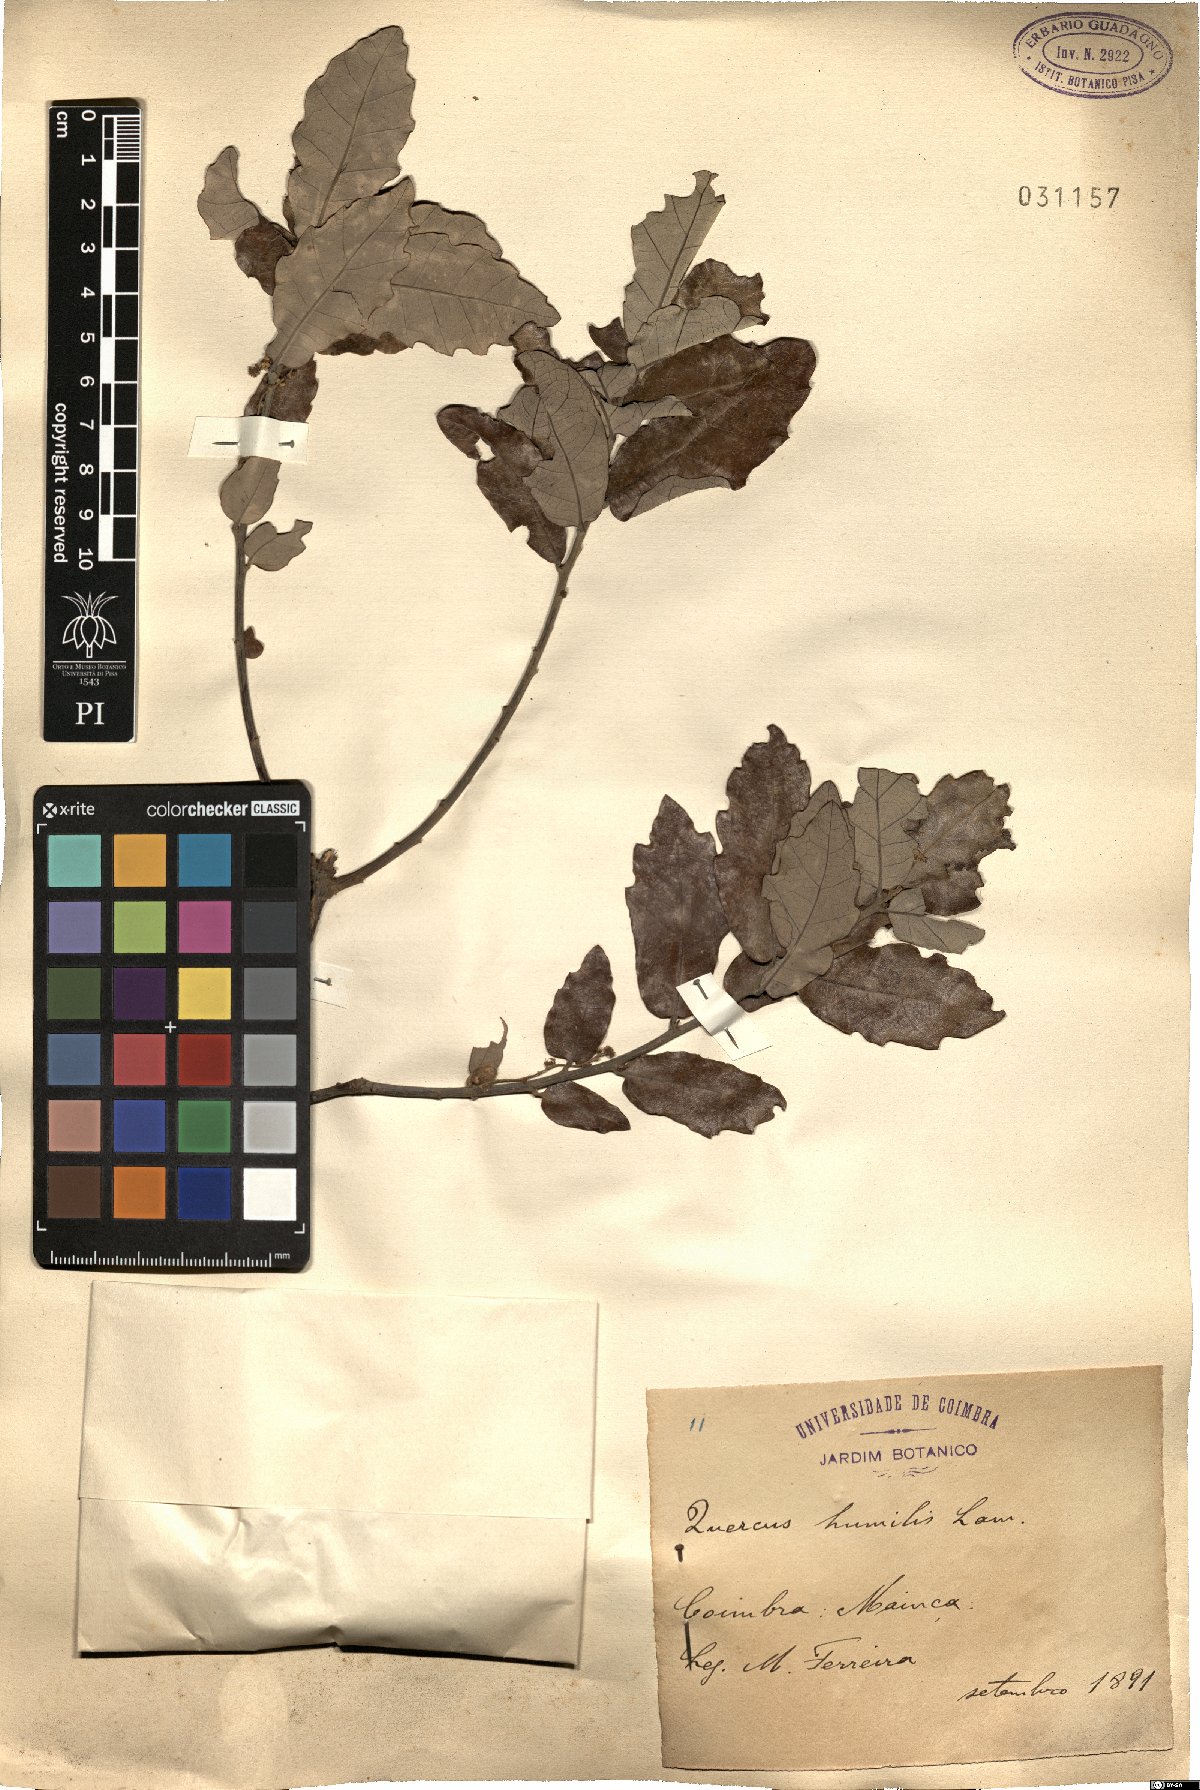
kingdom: Plantae
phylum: Tracheophyta
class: Magnoliopsida
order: Fagales
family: Fagaceae
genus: Quercus
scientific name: Quercus pyrenaica
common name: Pyrenean oak
